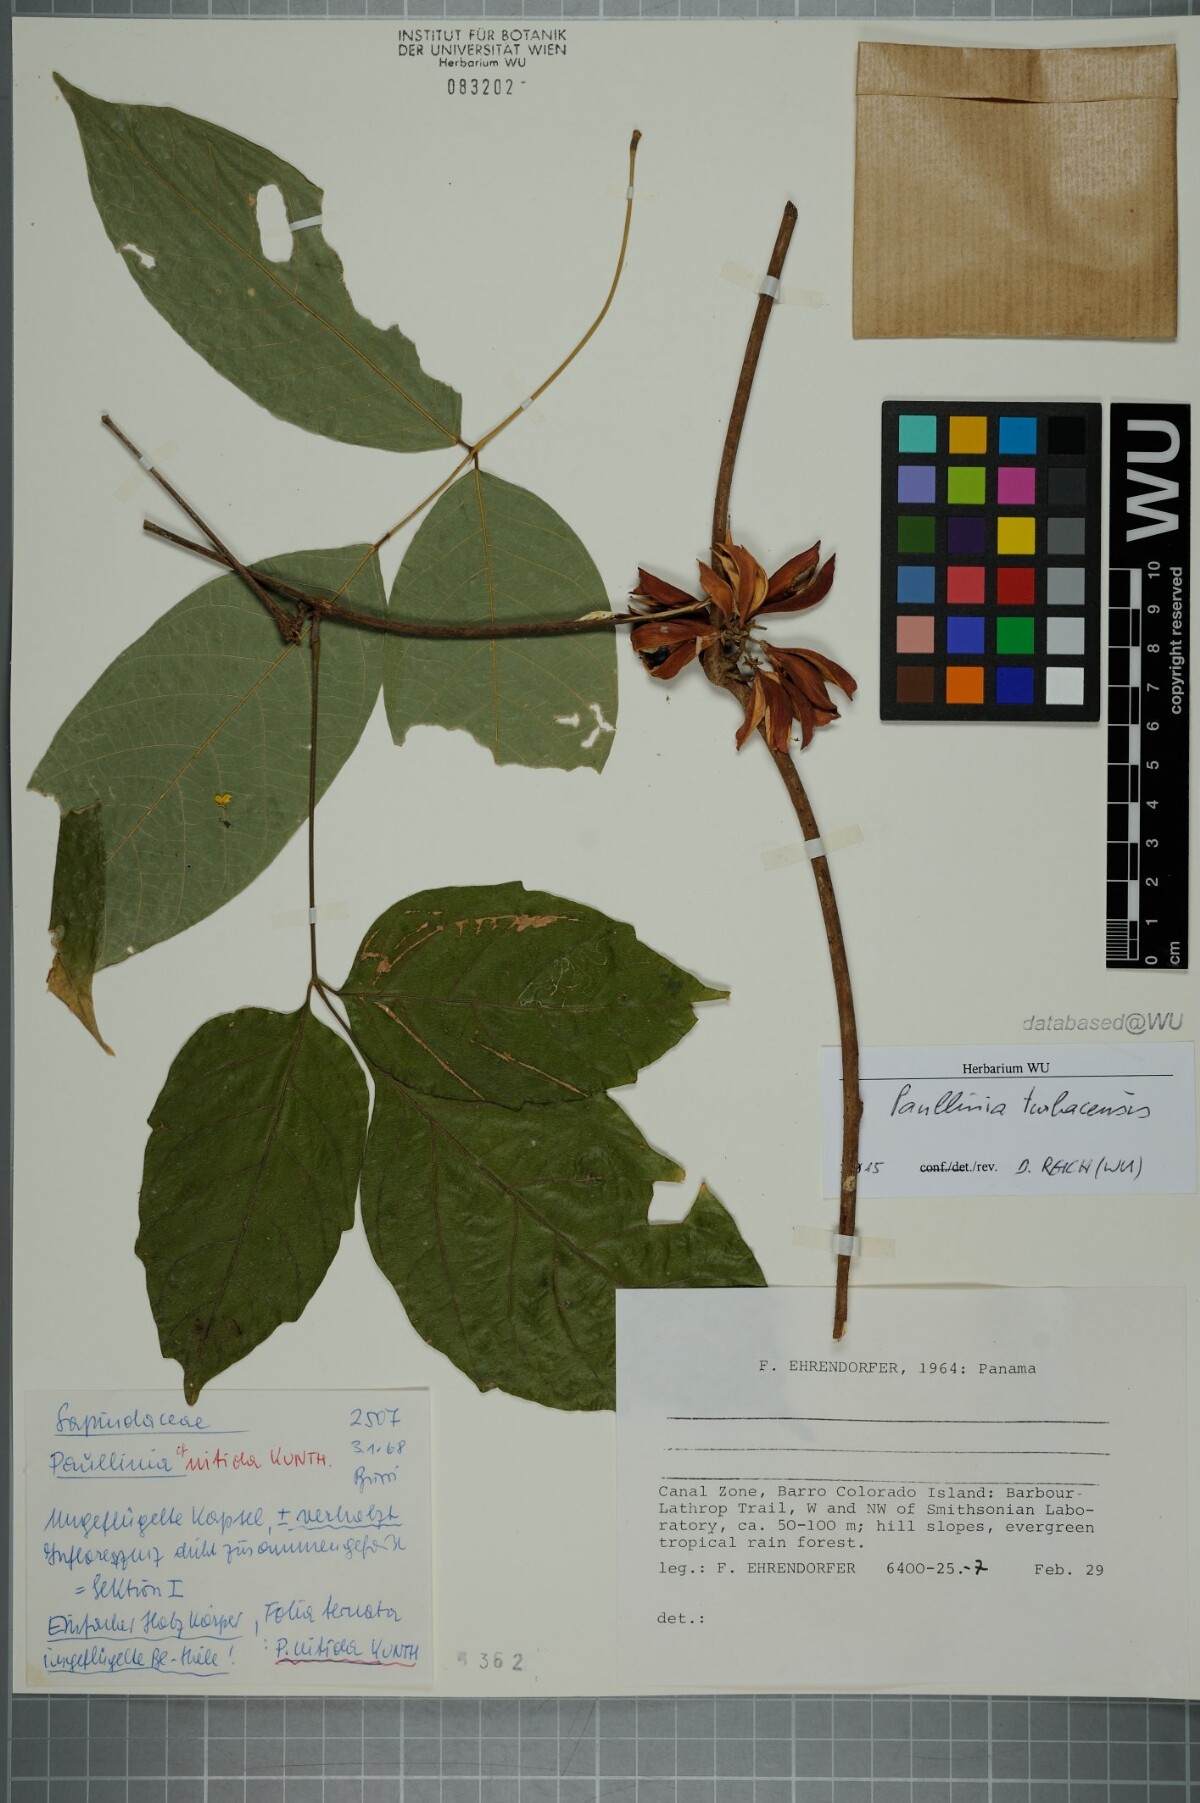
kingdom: Plantae
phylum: Tracheophyta
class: Magnoliopsida
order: Sapindales
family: Sapindaceae
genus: Paullinia
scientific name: Paullinia turbacensis
